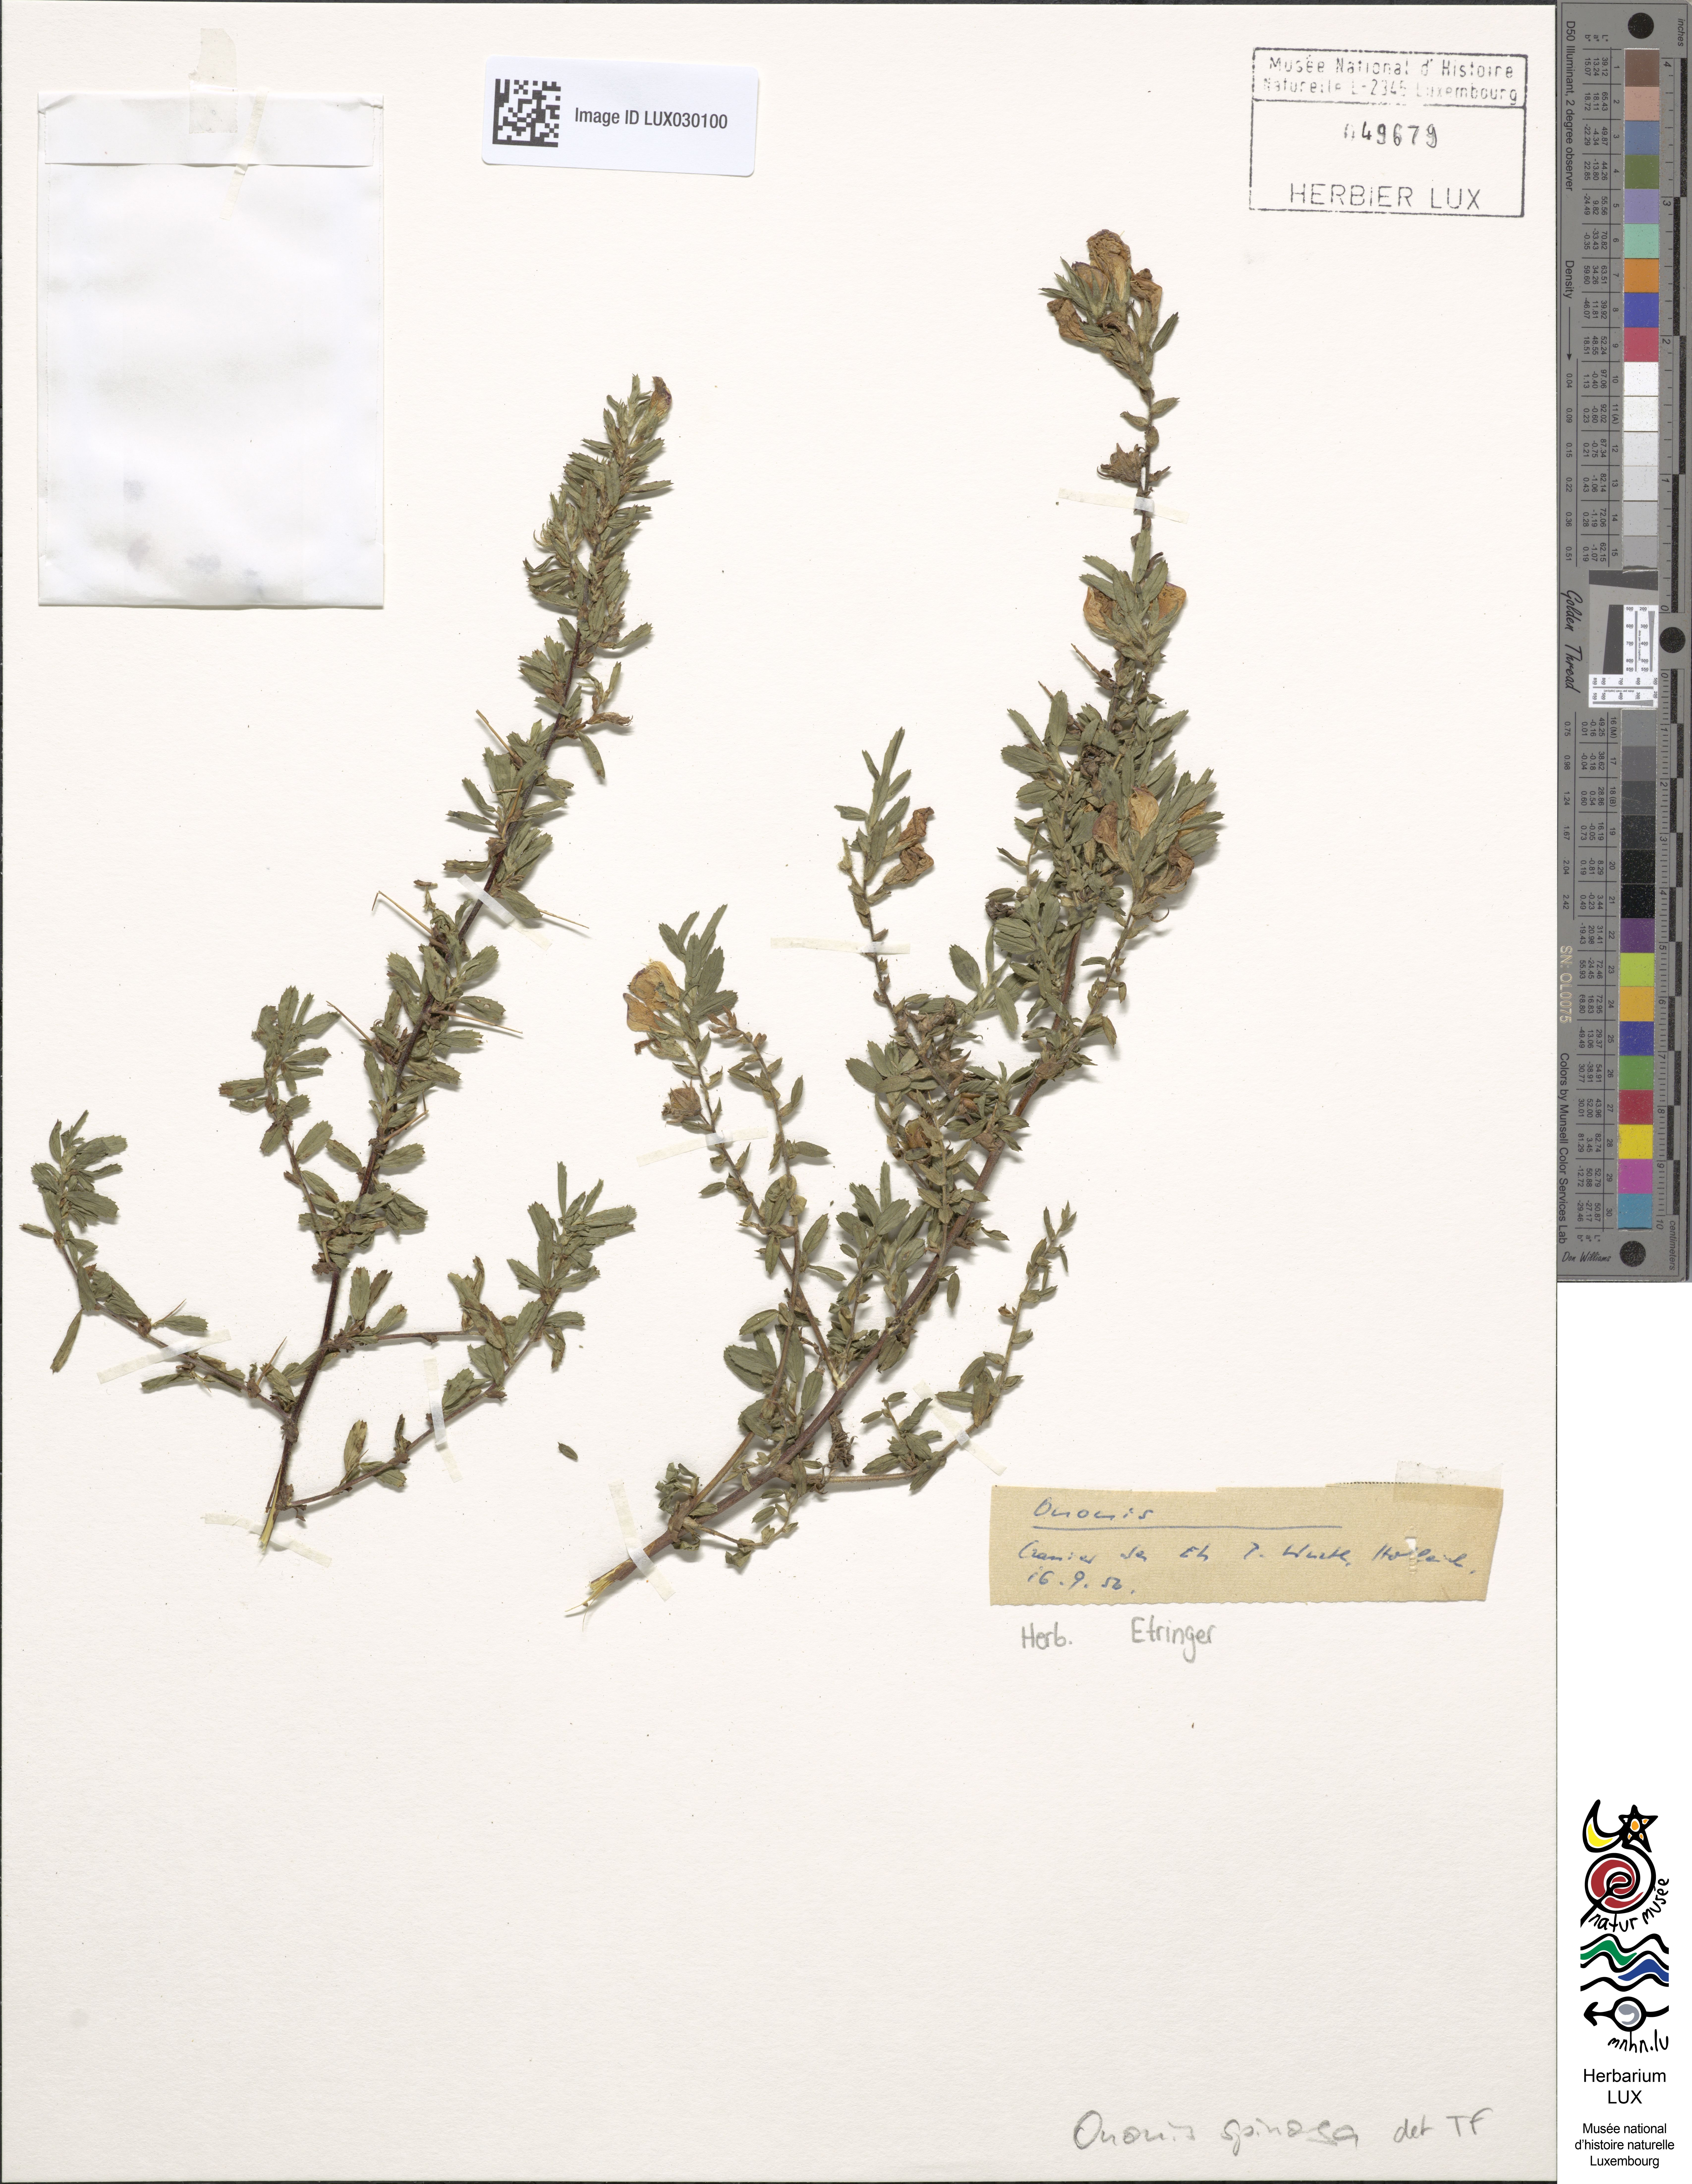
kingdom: Plantae
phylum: Tracheophyta
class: Magnoliopsida
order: Fabales
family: Fabaceae
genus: Ononis
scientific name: Ononis spinosa
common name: Spiny restharrow
